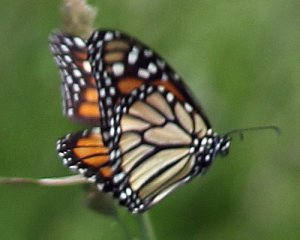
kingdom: Animalia
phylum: Arthropoda
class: Insecta
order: Lepidoptera
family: Nymphalidae
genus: Danaus
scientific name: Danaus plexippus
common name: Monarch
